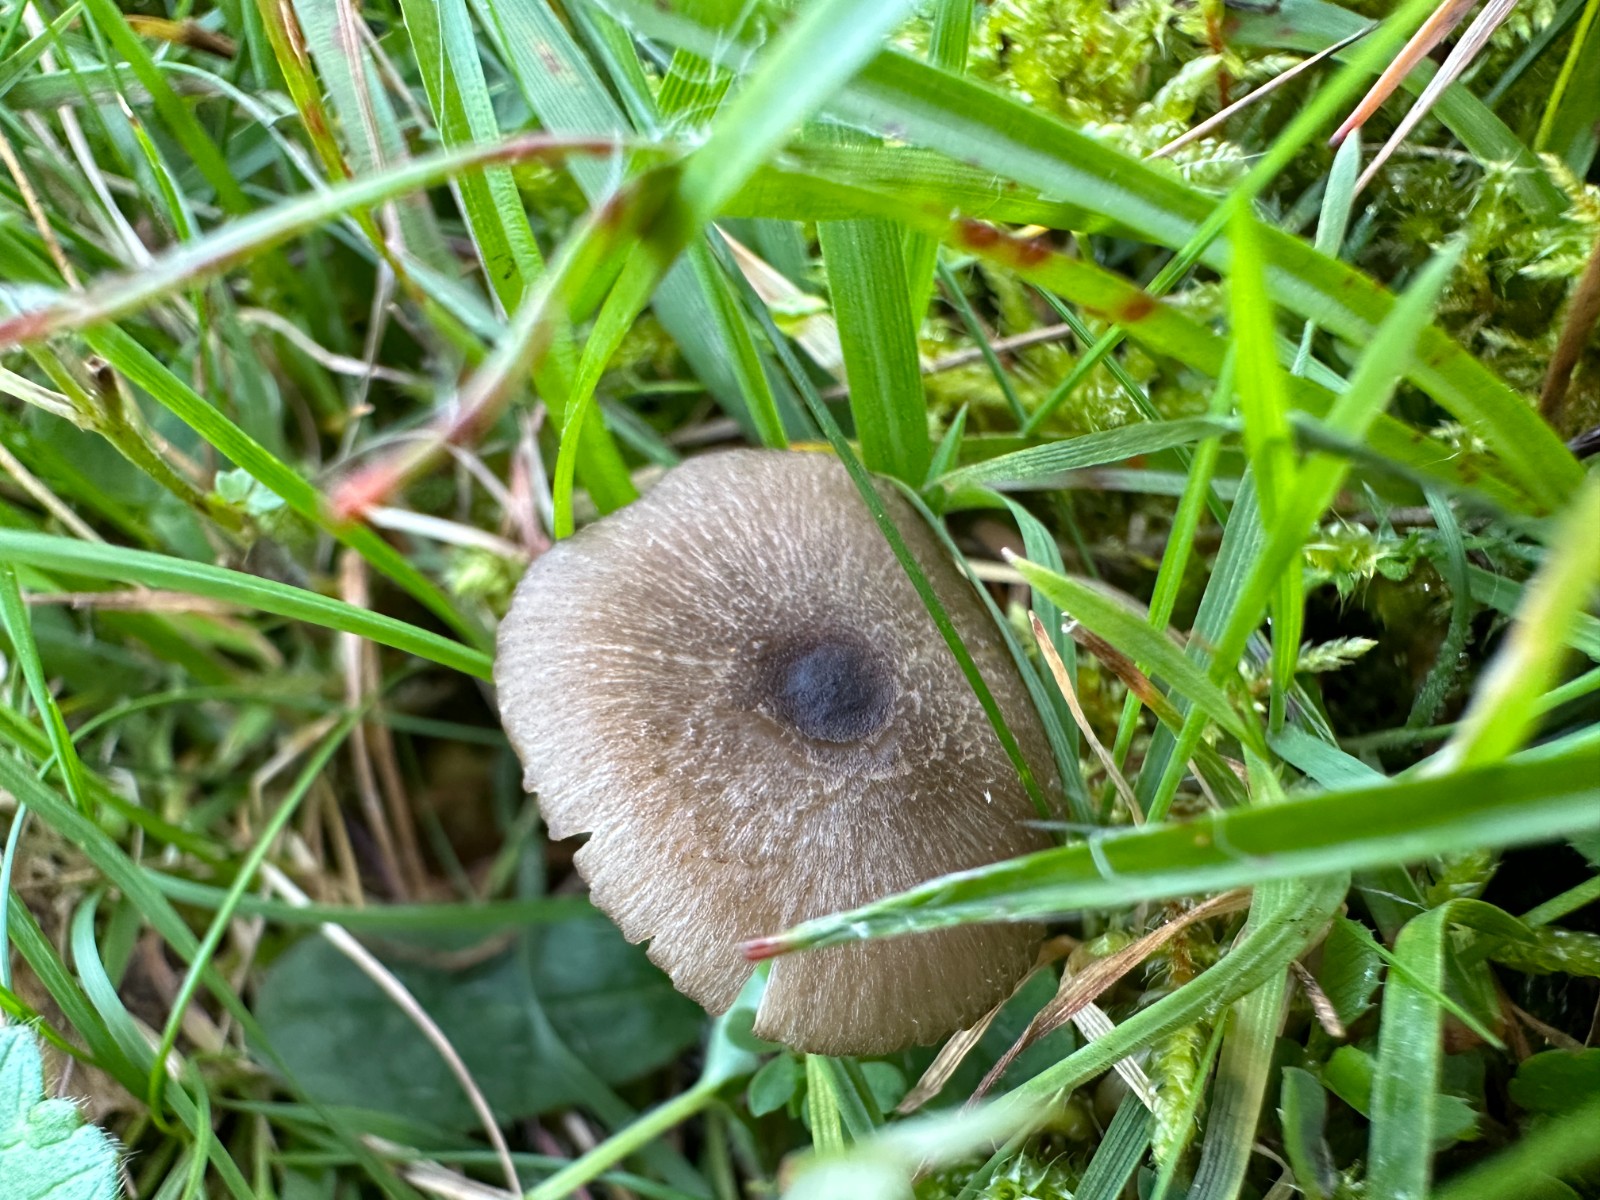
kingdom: Fungi
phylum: Basidiomycota
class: Agaricomycetes
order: Agaricales
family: Entolomataceae
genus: Entoloma
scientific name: Entoloma
